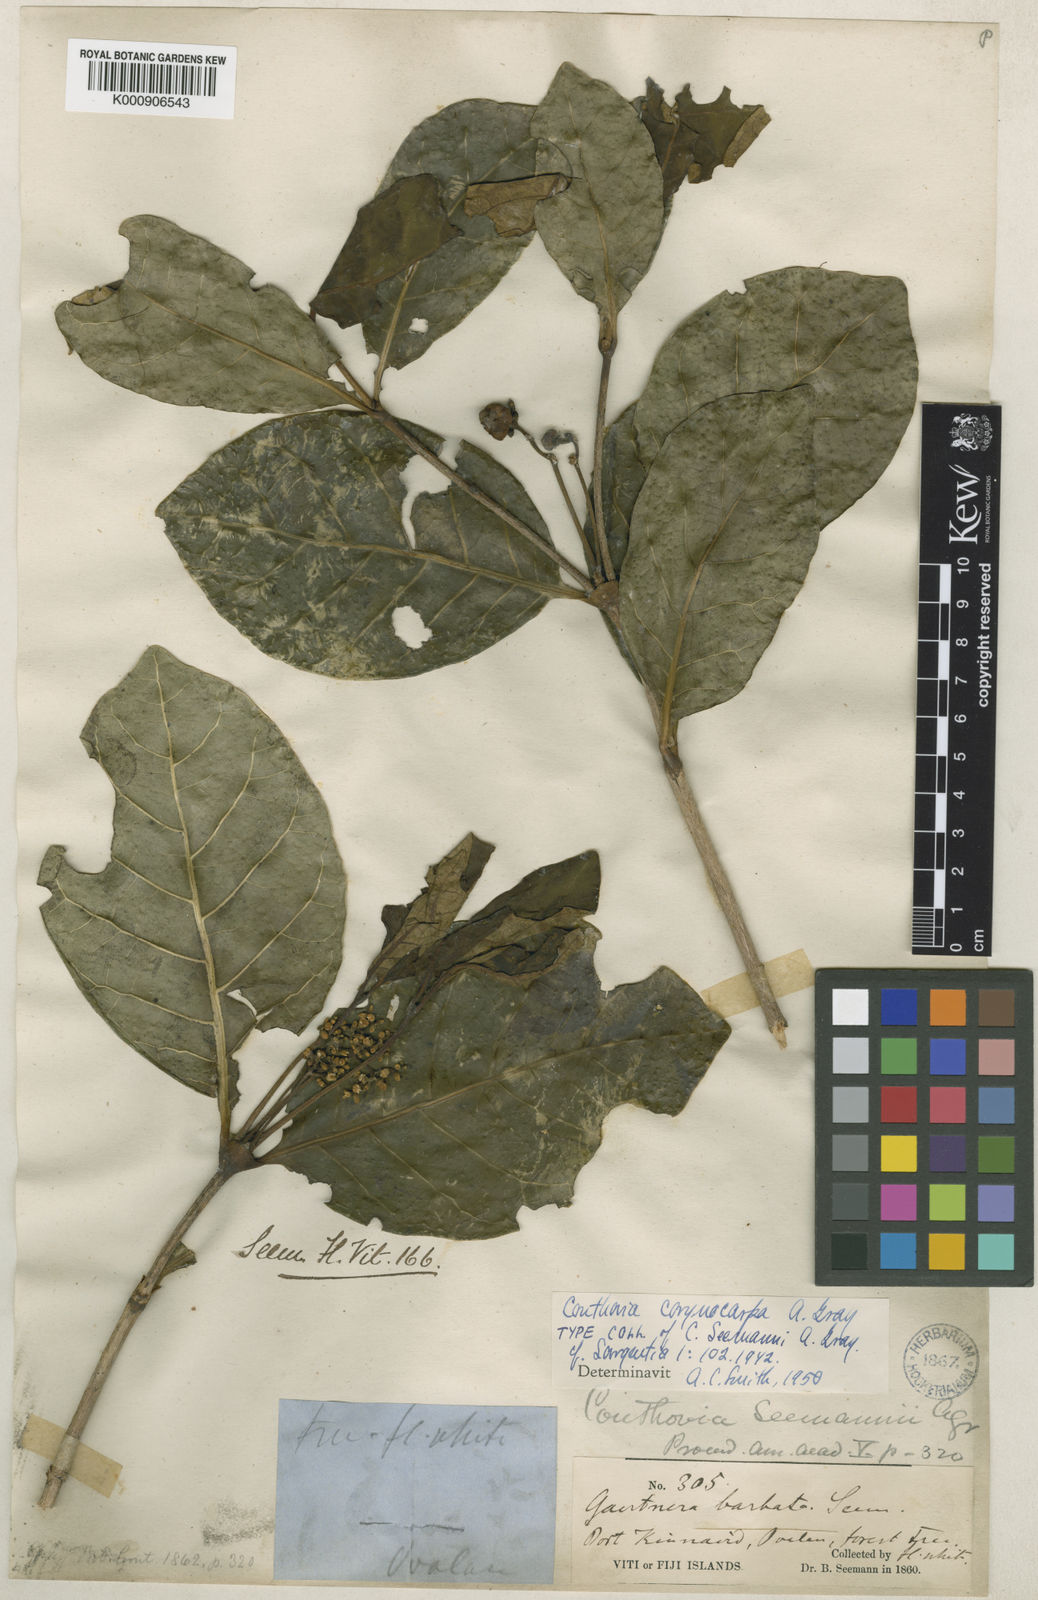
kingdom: Plantae
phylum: Tracheophyta
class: Magnoliopsida
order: Gentianales
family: Loganiaceae
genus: Neuburgia
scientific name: Neuburgia corynocarpa
